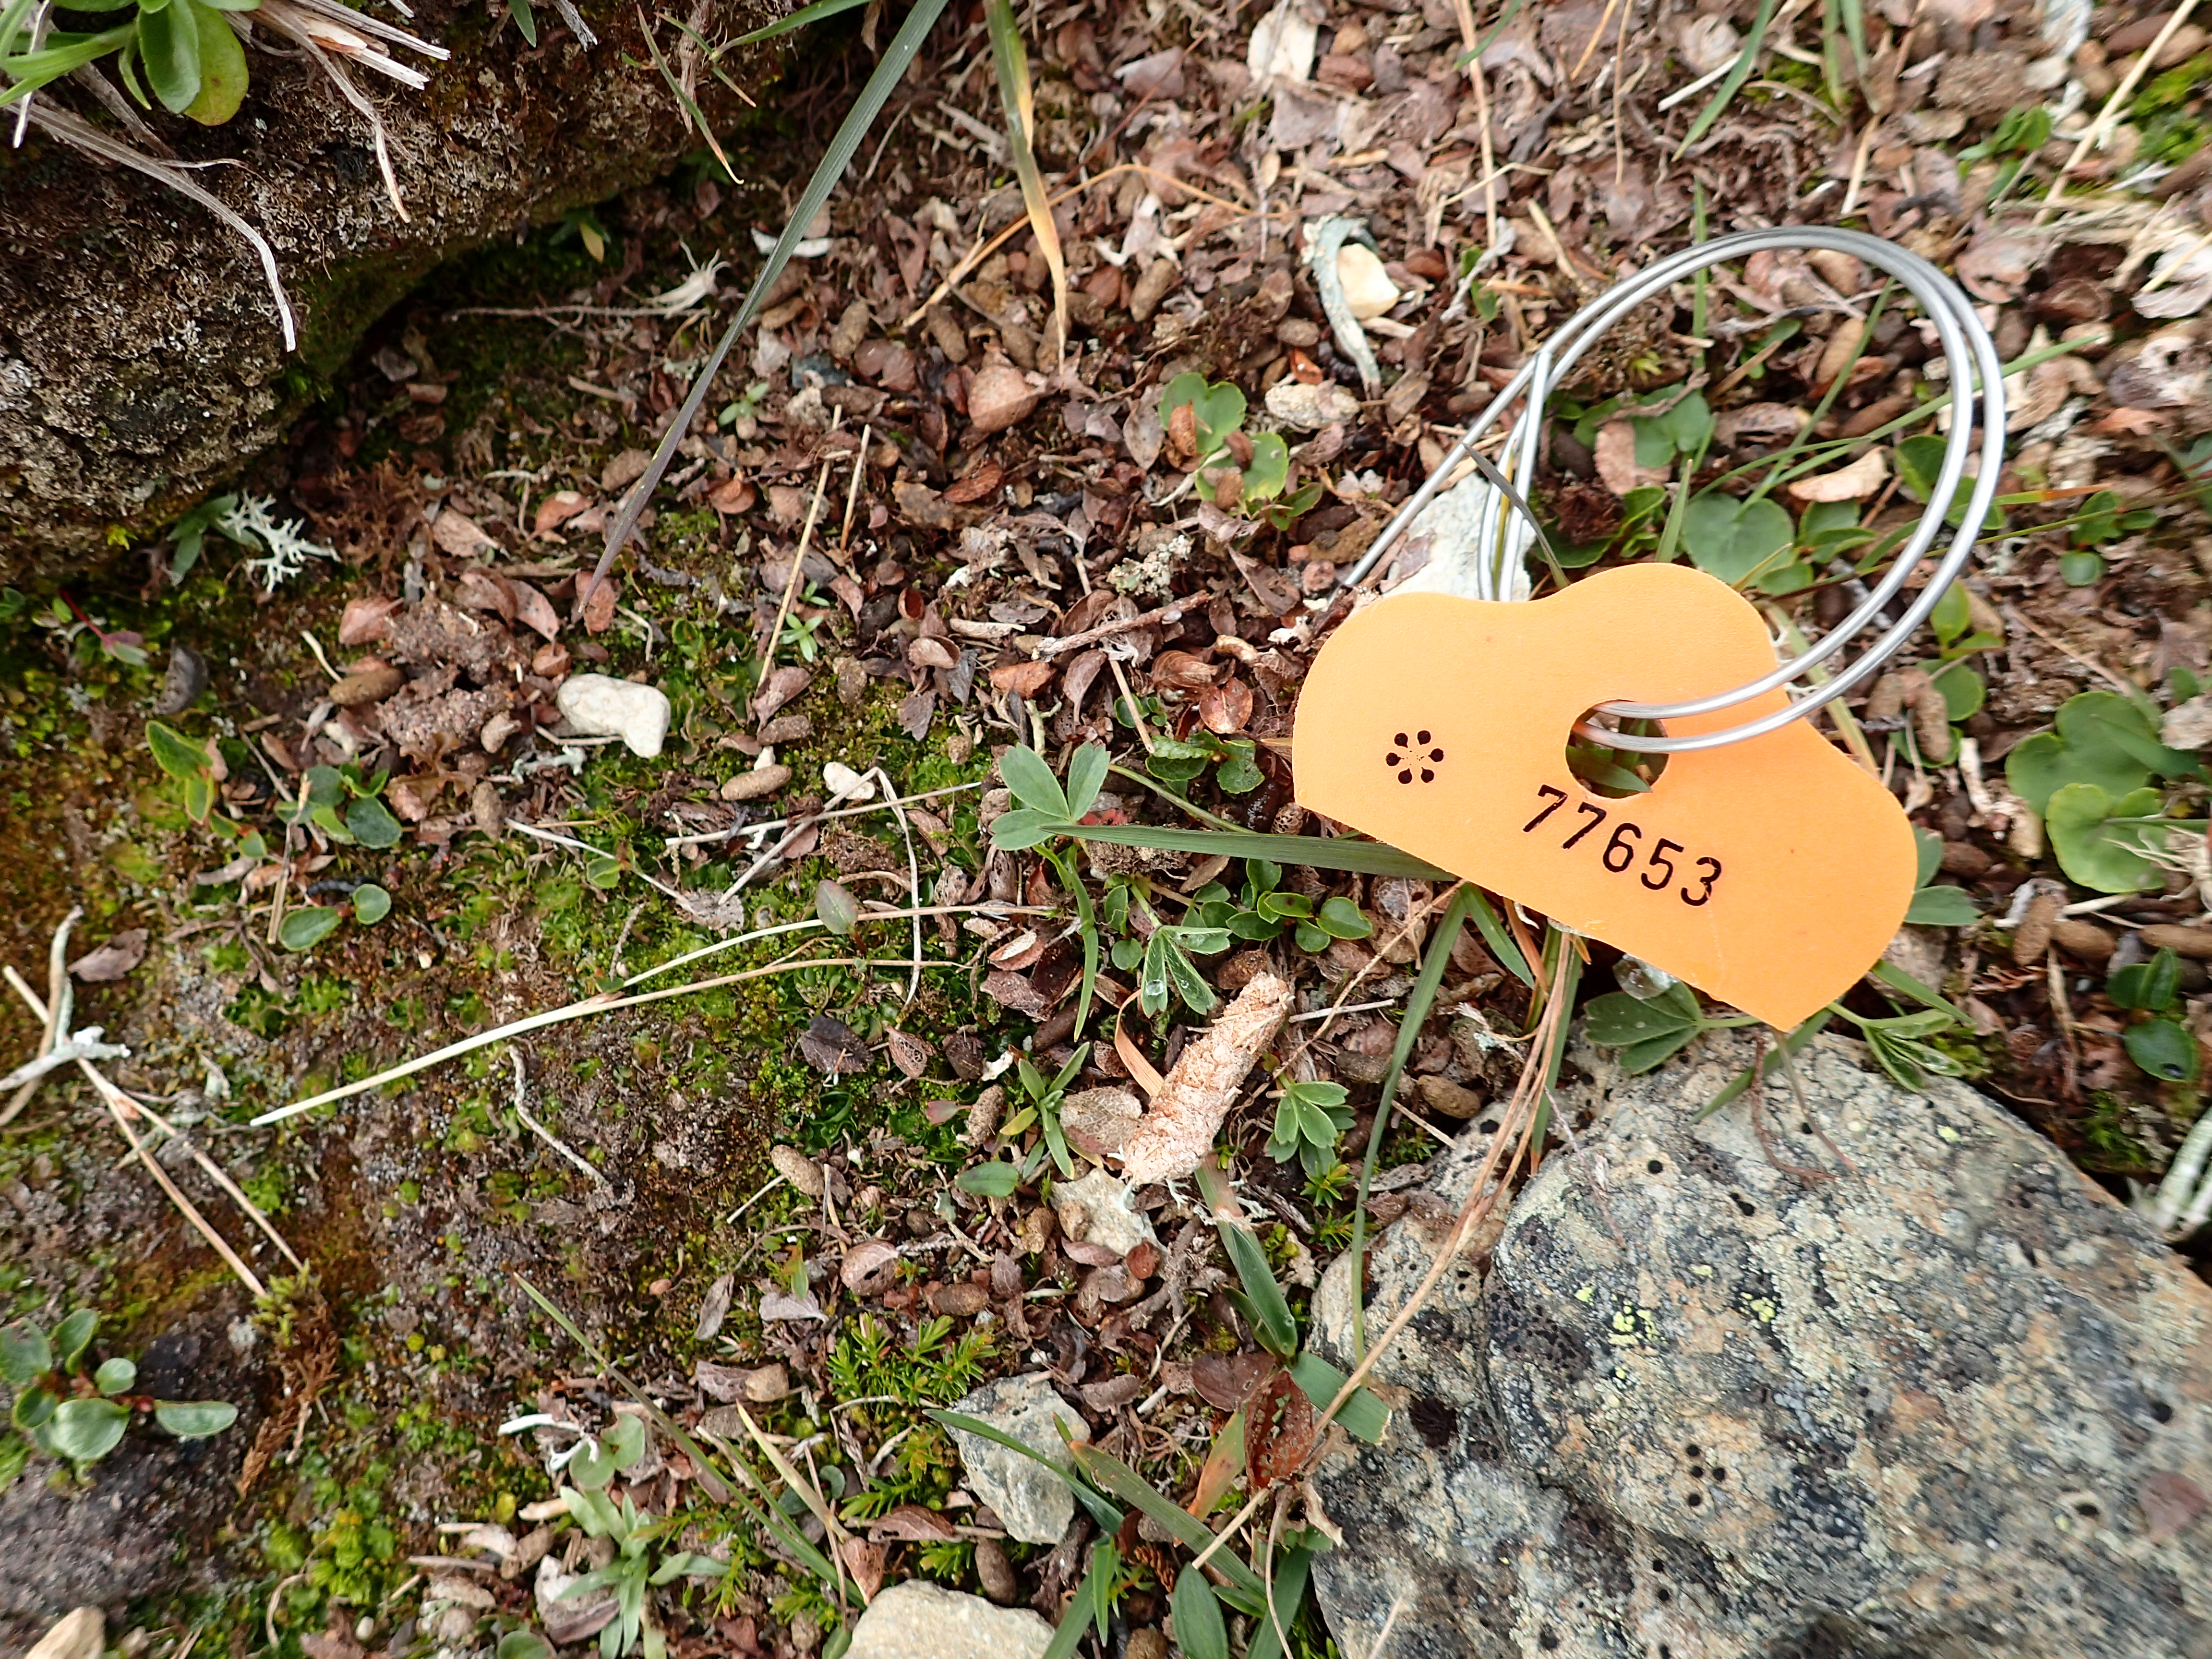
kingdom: Plantae
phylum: Marchantiophyta
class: Jungermanniopsida
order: Pallaviciniales
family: Pseudomoerckiaceae
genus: Pseudomoerckia
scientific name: Pseudomoerckia blyttii
